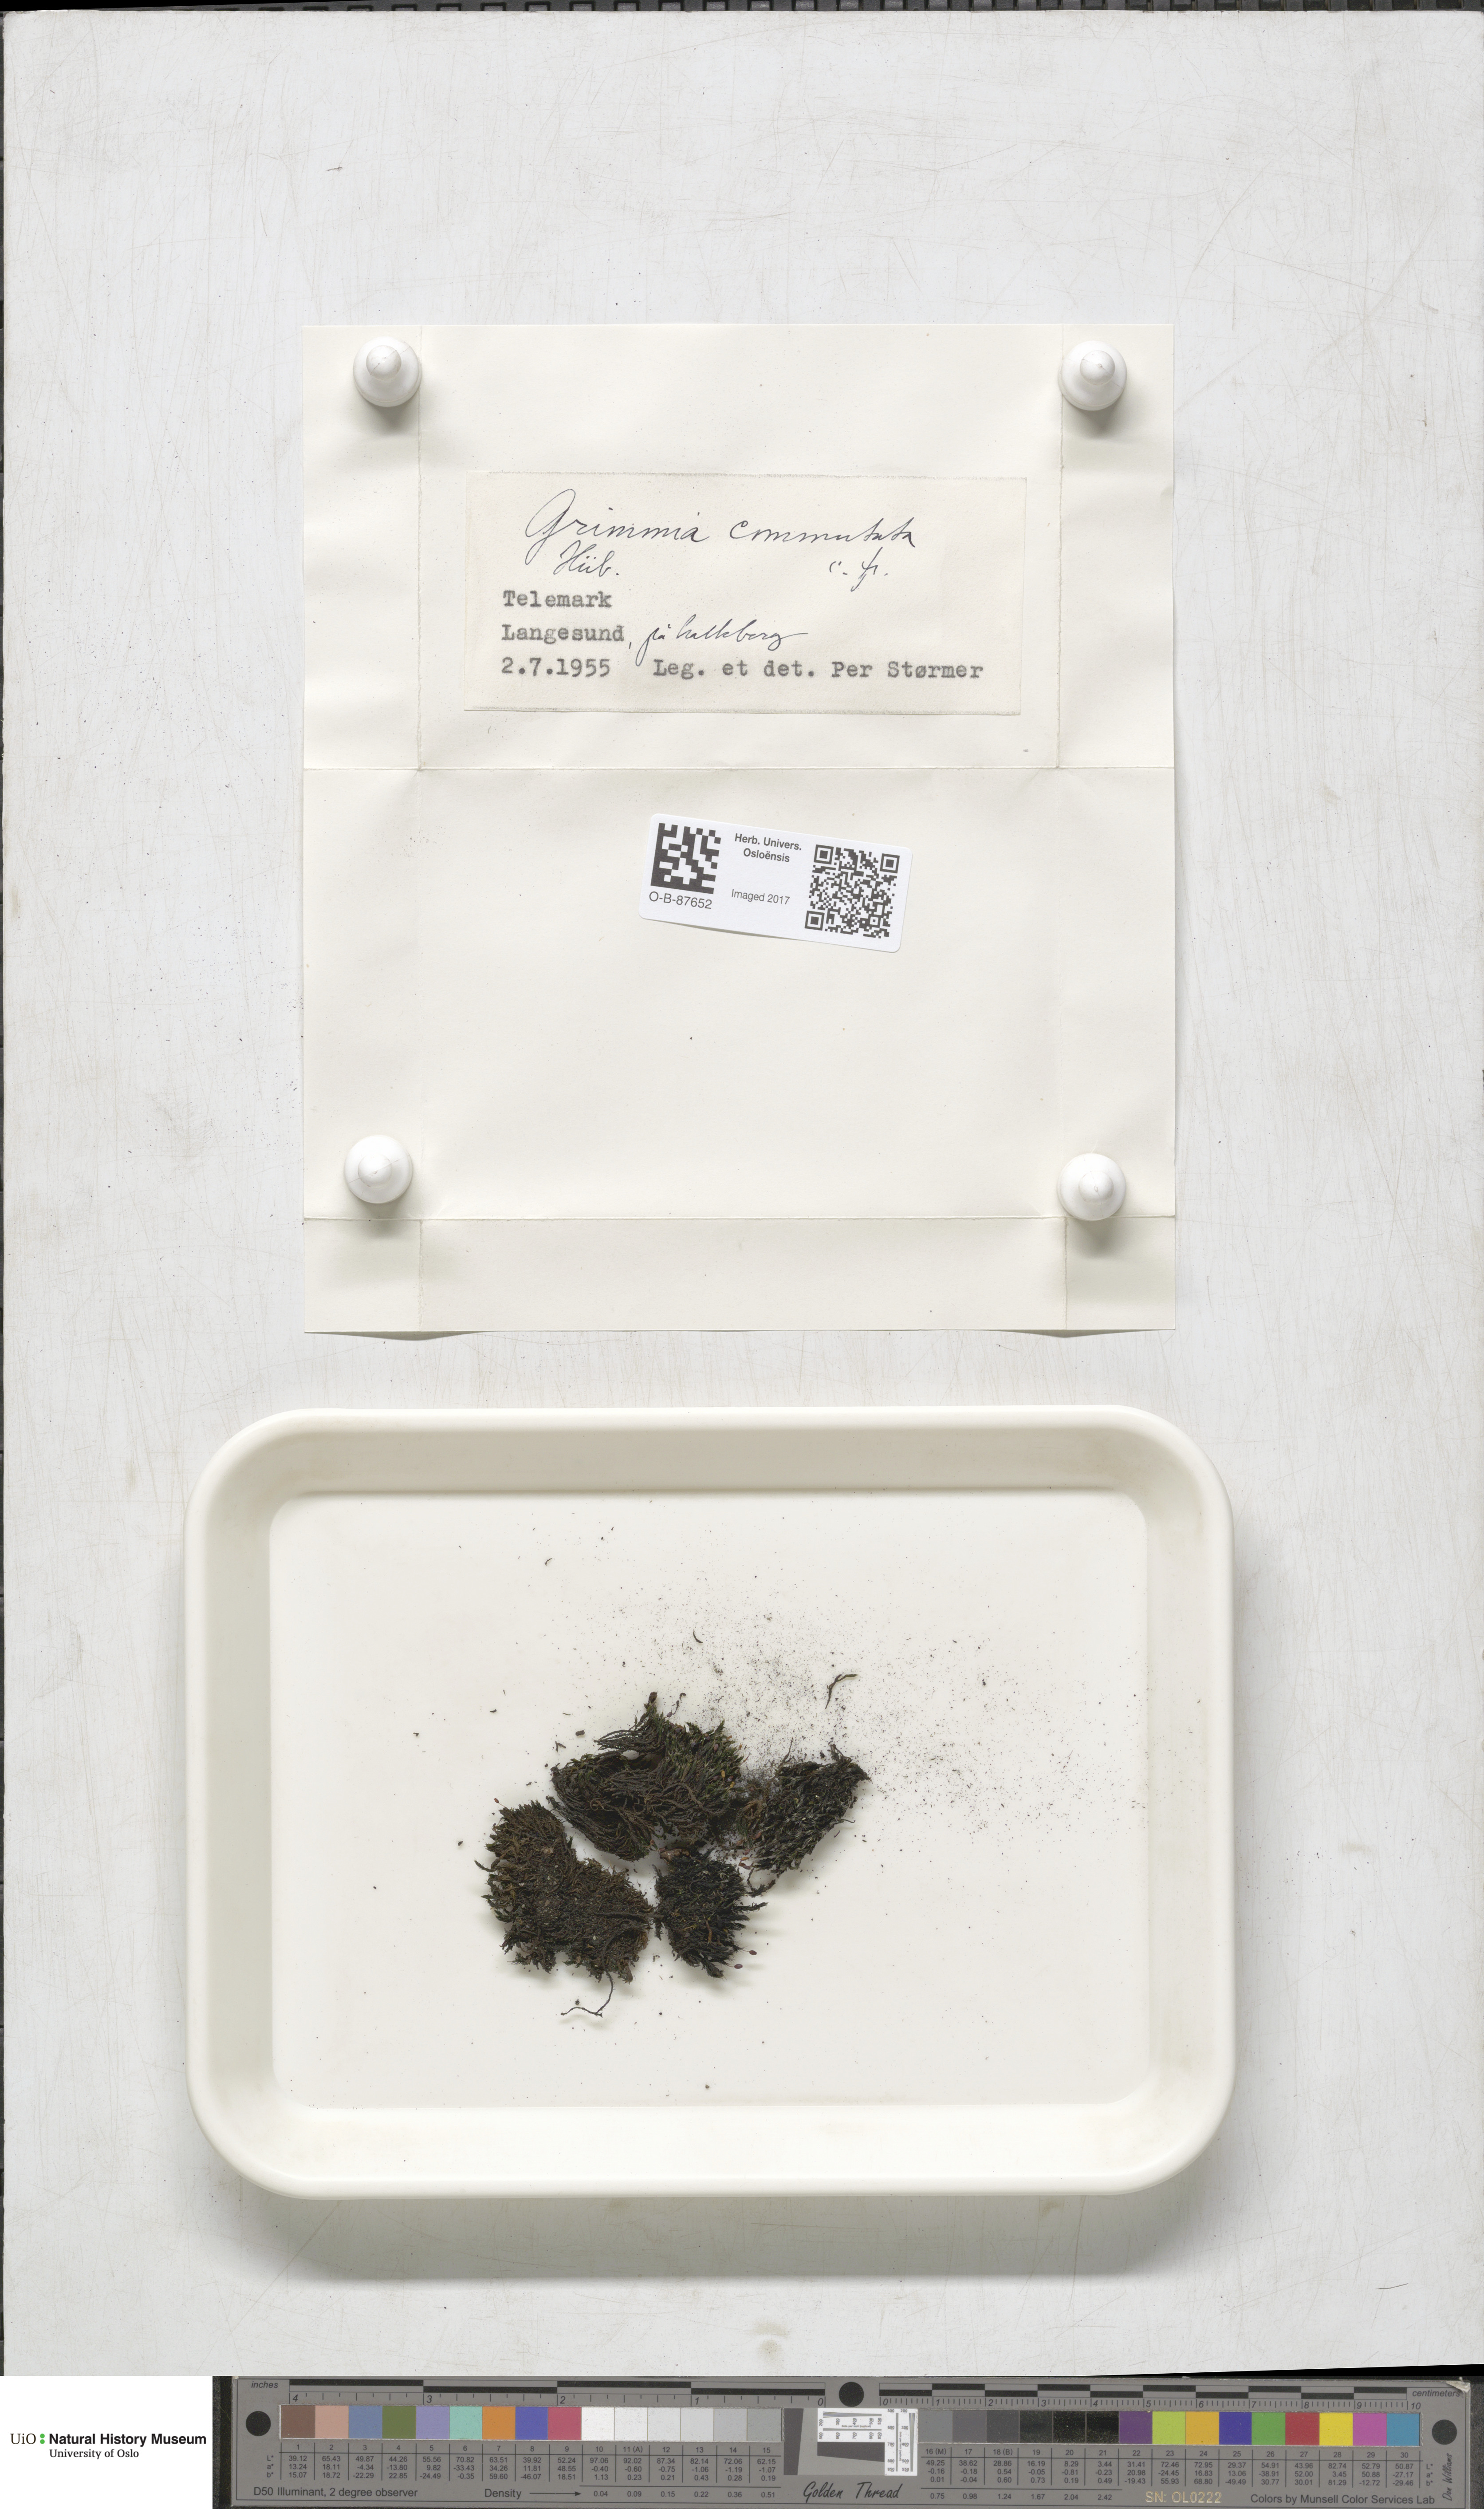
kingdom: Plantae
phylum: Bryophyta
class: Bryopsida
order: Grimmiales
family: Grimmiaceae
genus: Grimmia
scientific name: Grimmia ovalis
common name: Oval grimmia
